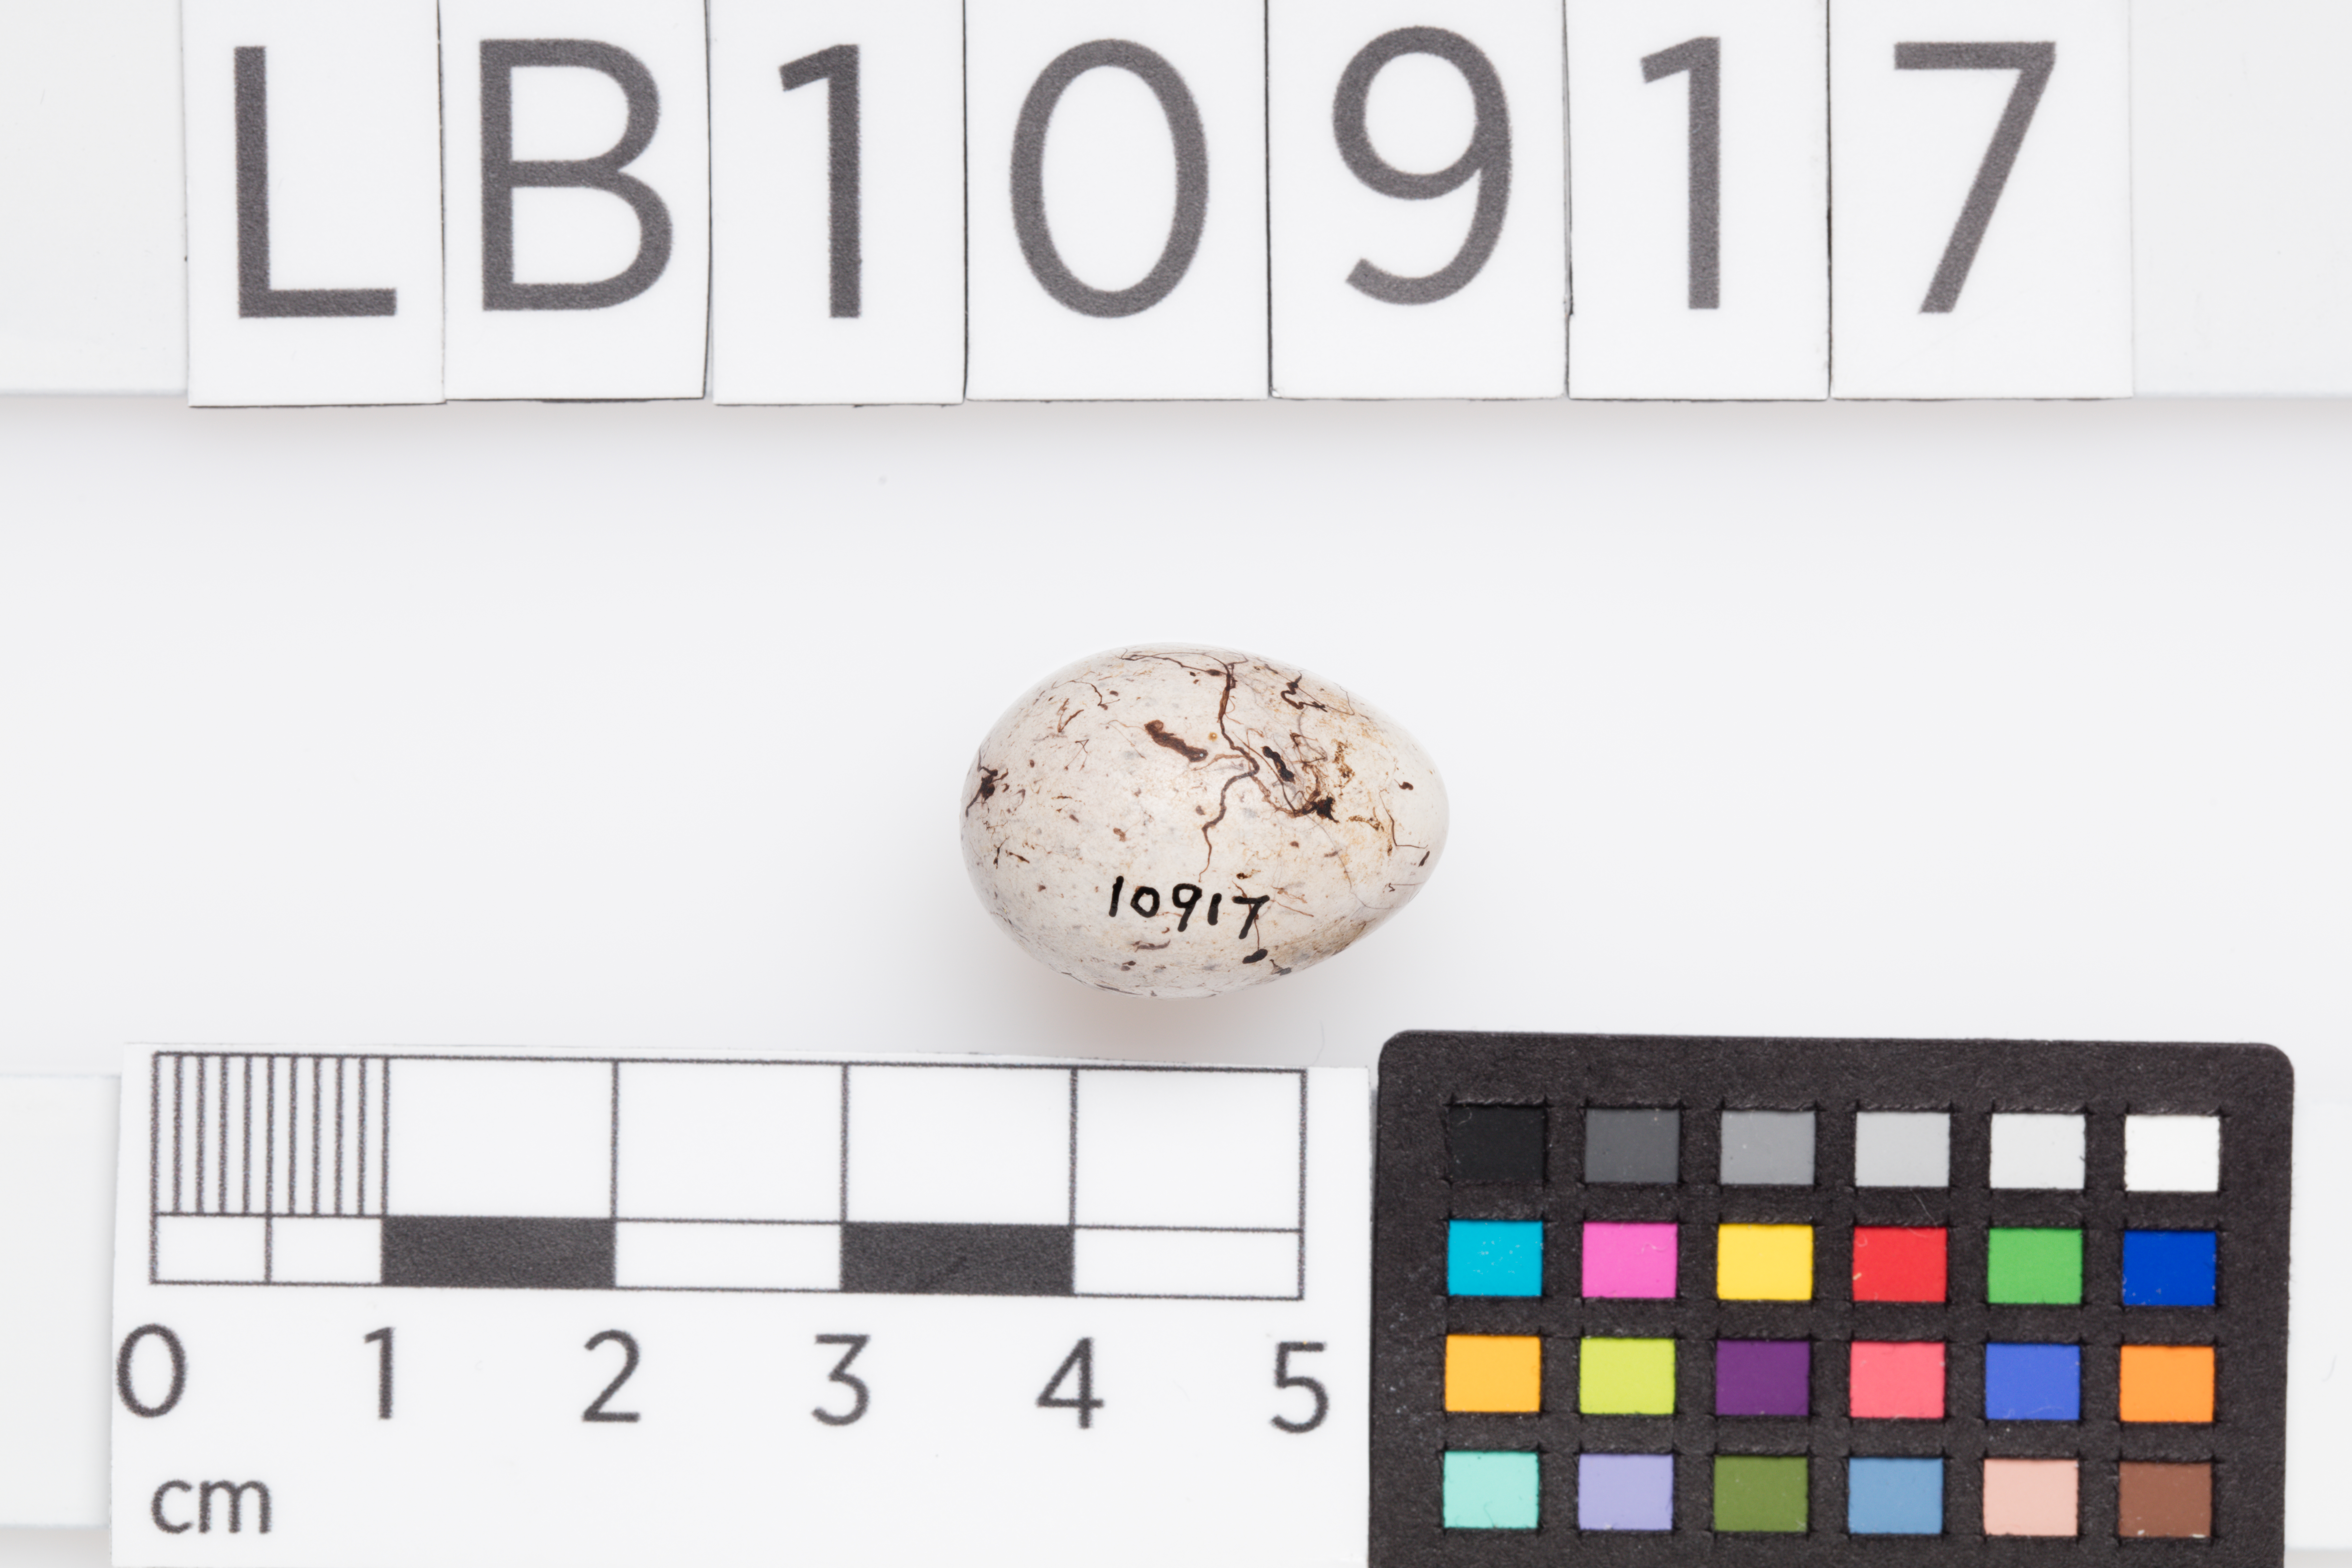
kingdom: Animalia
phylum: Chordata
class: Aves
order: Passeriformes
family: Emberizidae
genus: Emberiza
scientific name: Emberiza citrinella
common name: Yellowhammer
